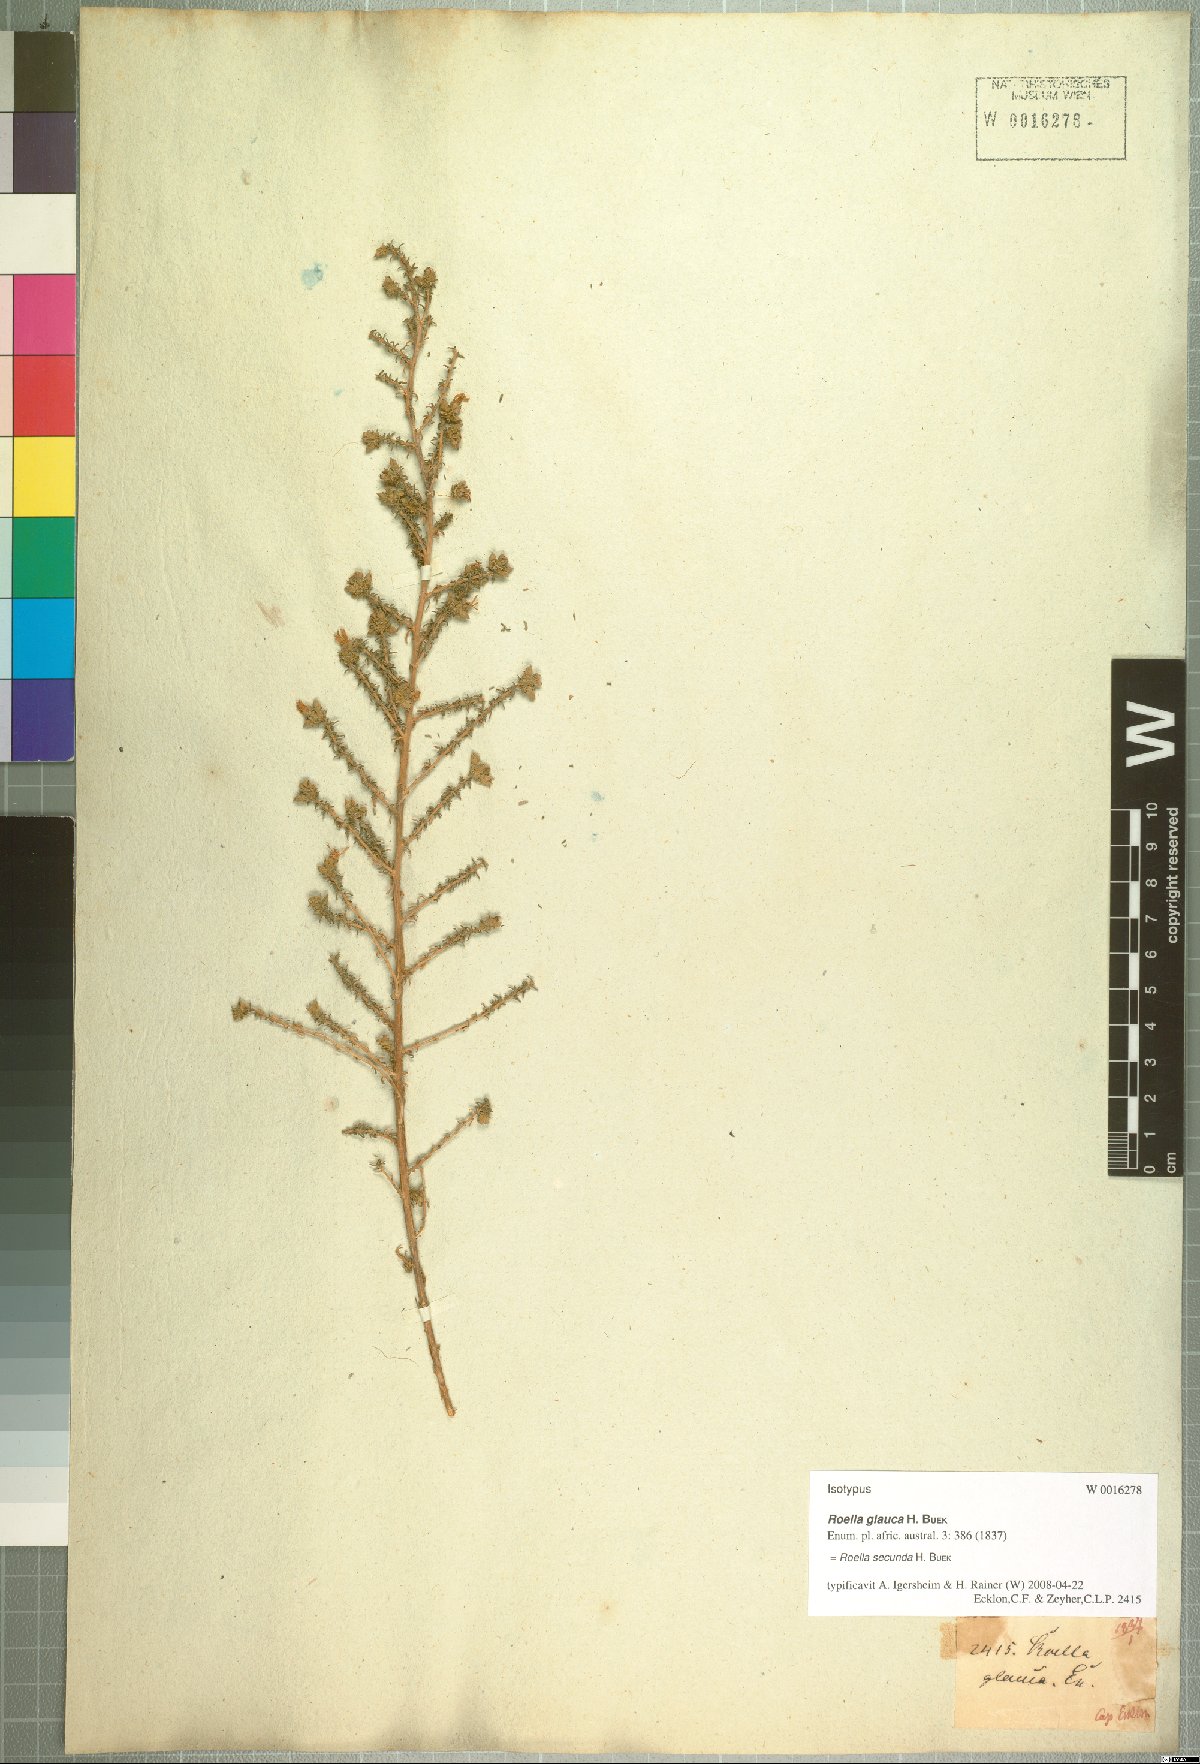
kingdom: Plantae
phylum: Tracheophyta
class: Magnoliopsida
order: Asterales
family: Campanulaceae
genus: Roella
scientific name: Roella secunda
